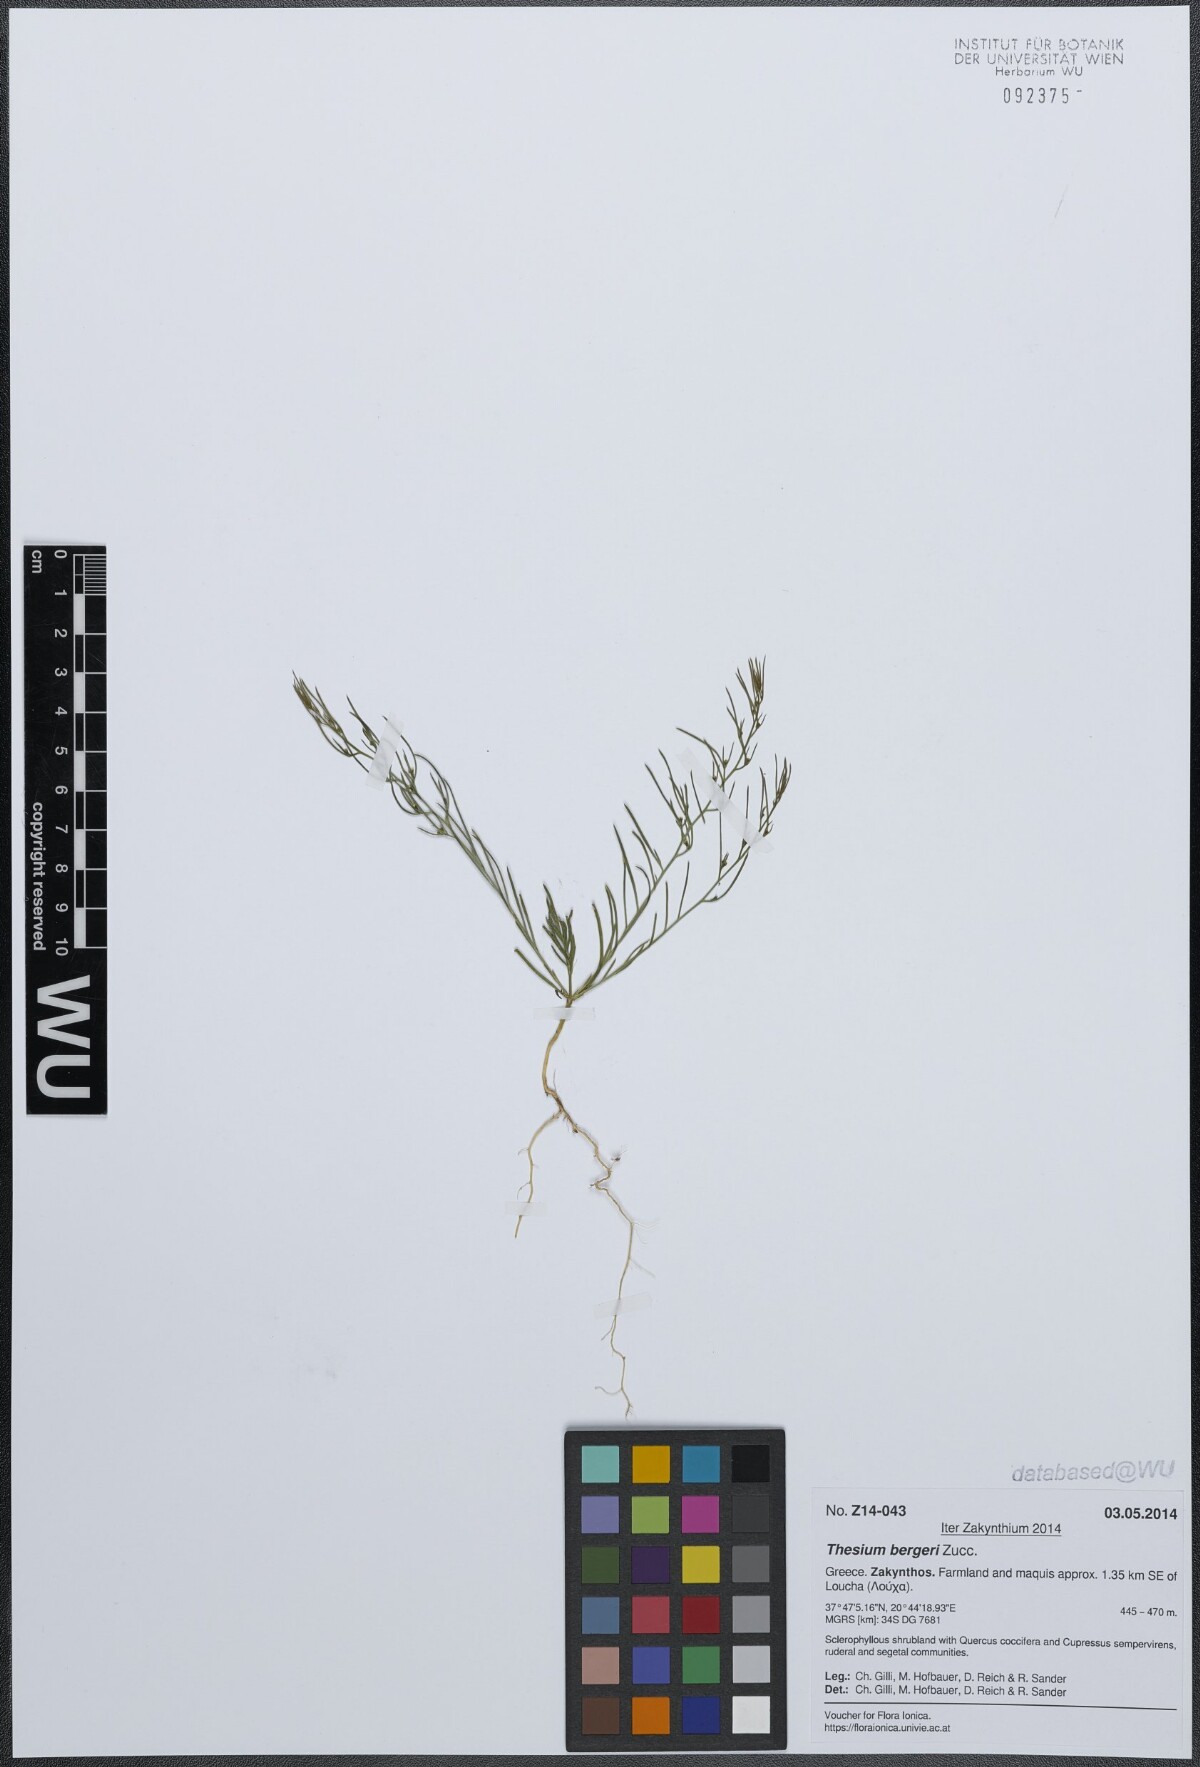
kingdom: Plantae
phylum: Tracheophyta
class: Magnoliopsida
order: Santalales
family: Thesiaceae
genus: Thesium
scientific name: Thesium bergeri
